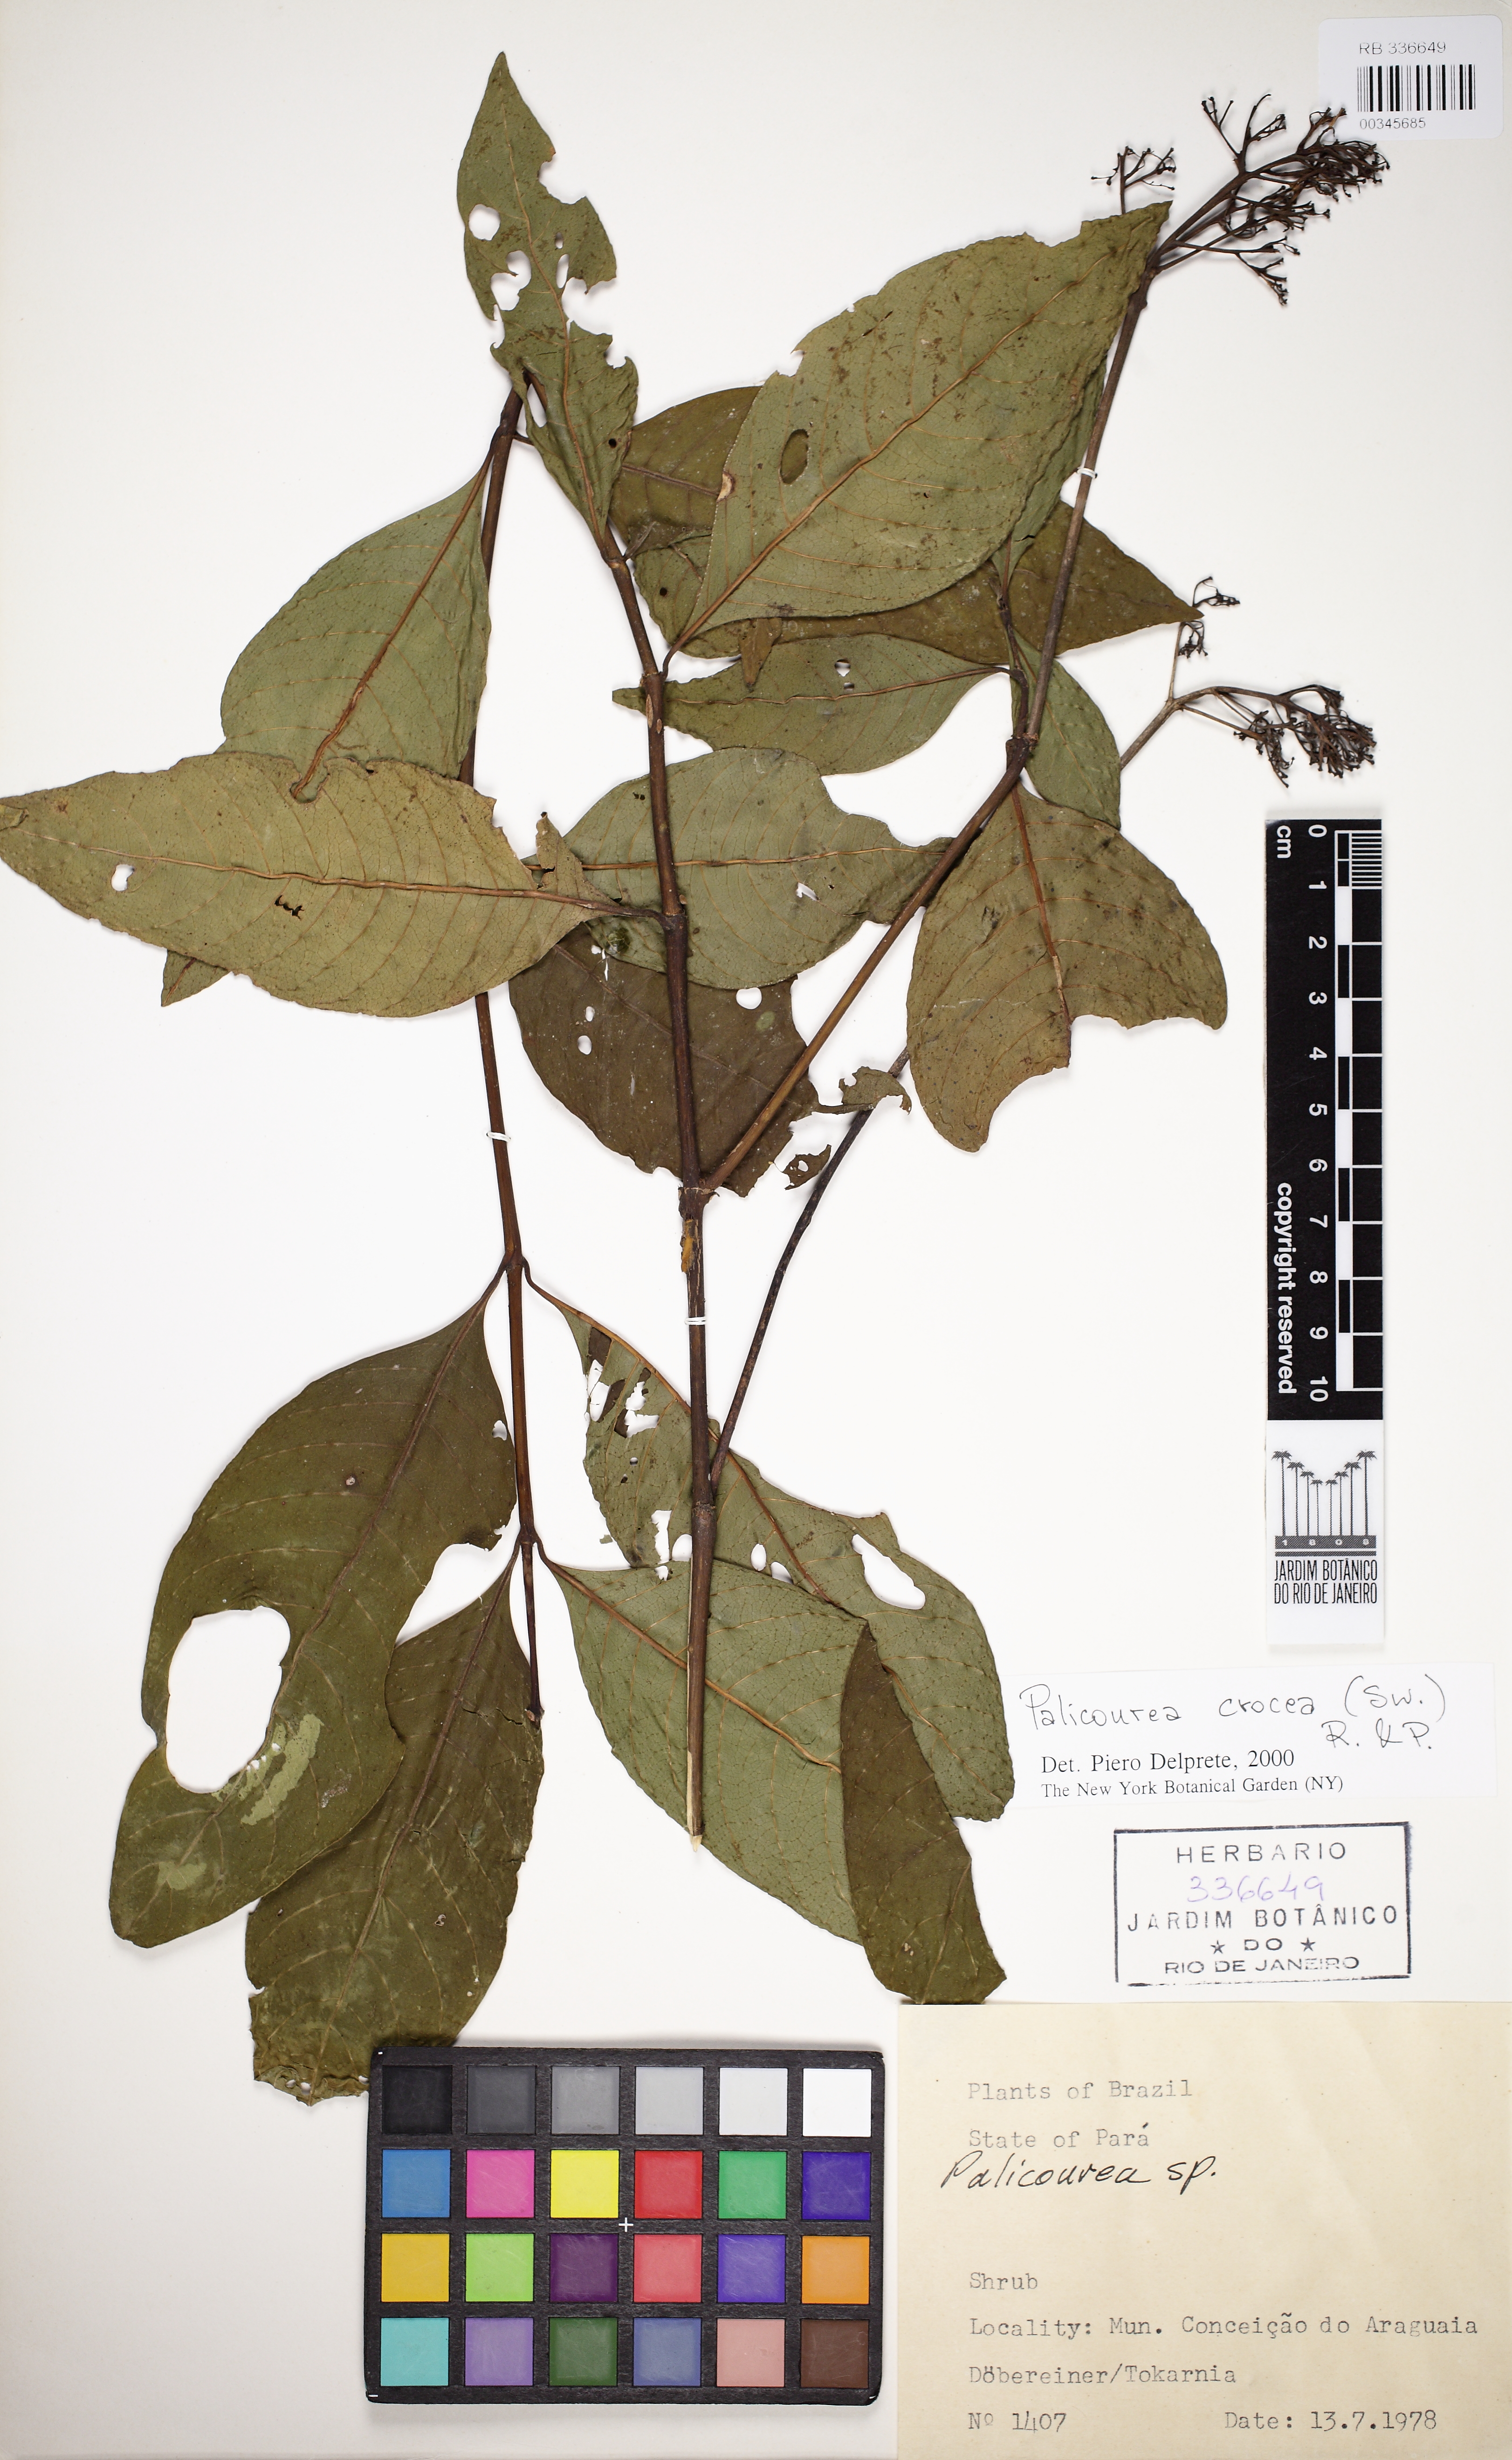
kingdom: Plantae
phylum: Tracheophyta
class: Magnoliopsida
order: Gentianales
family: Rubiaceae
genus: Palicourea
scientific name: Palicourea crocea
